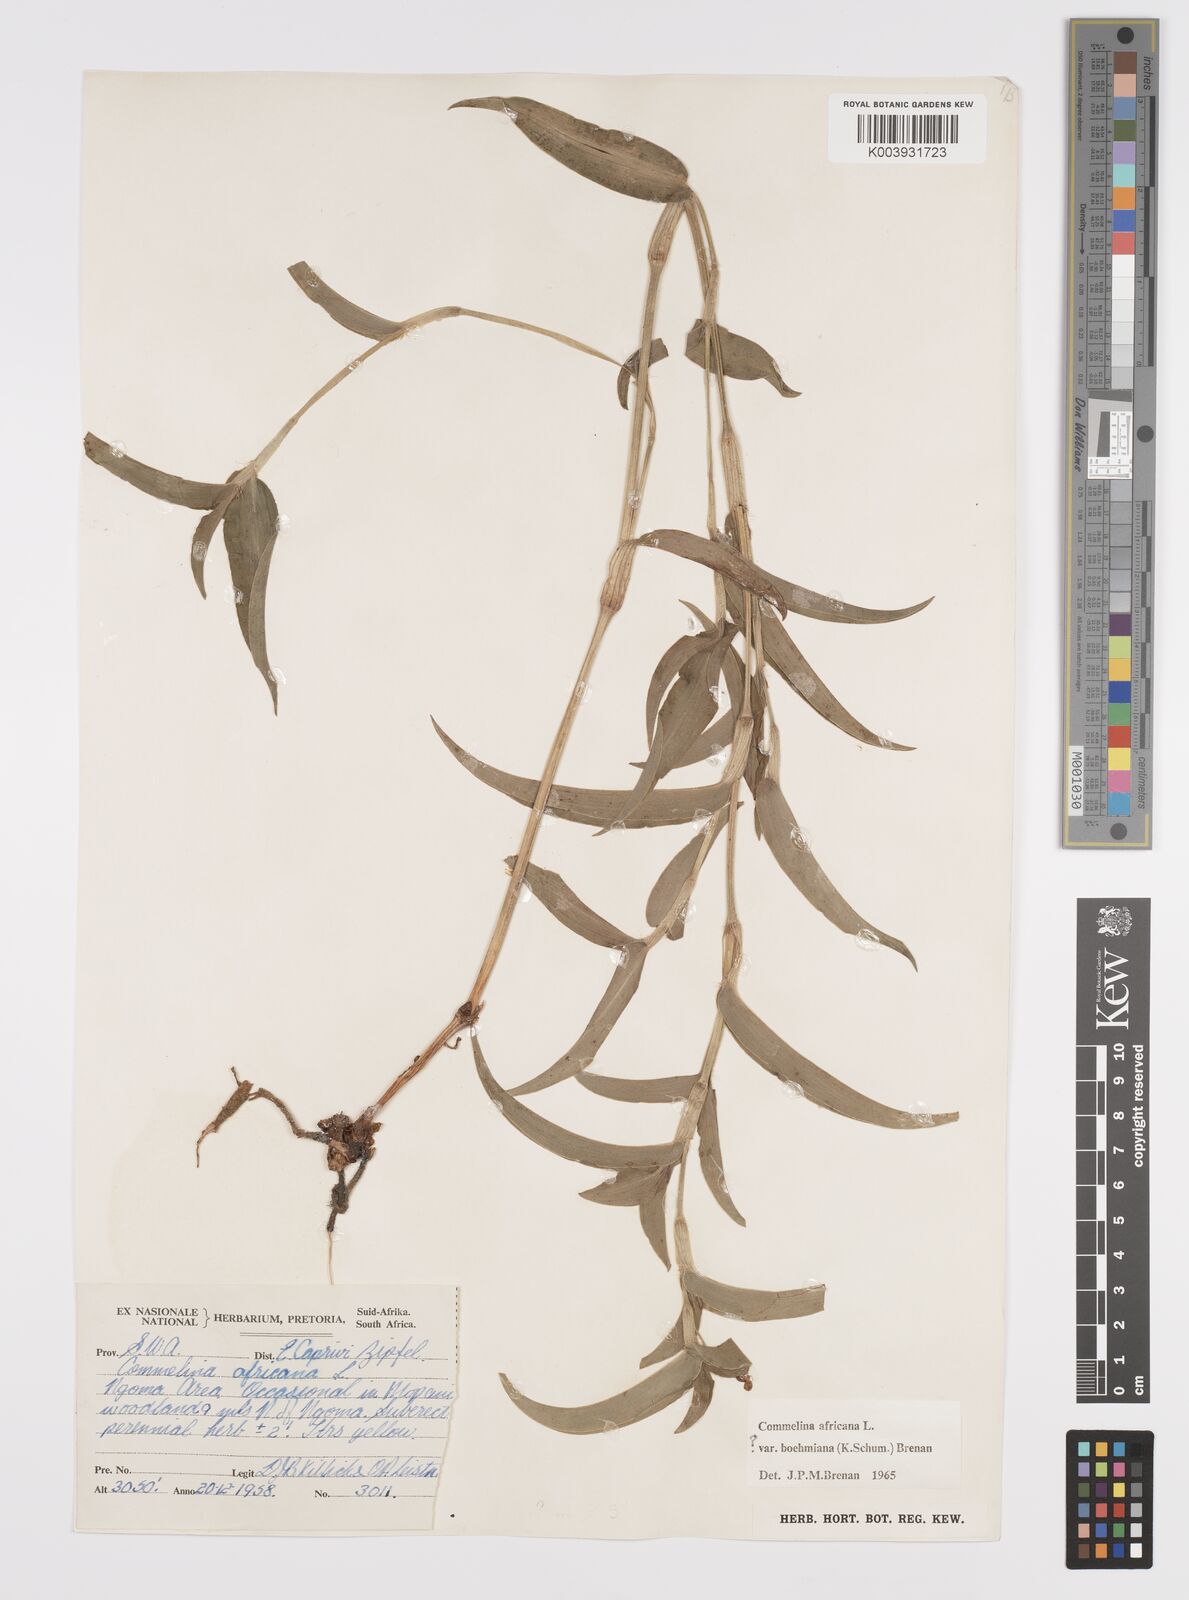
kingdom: Plantae
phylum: Tracheophyta
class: Liliopsida
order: Commelinales
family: Commelinaceae
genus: Commelina
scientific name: Commelina africana
